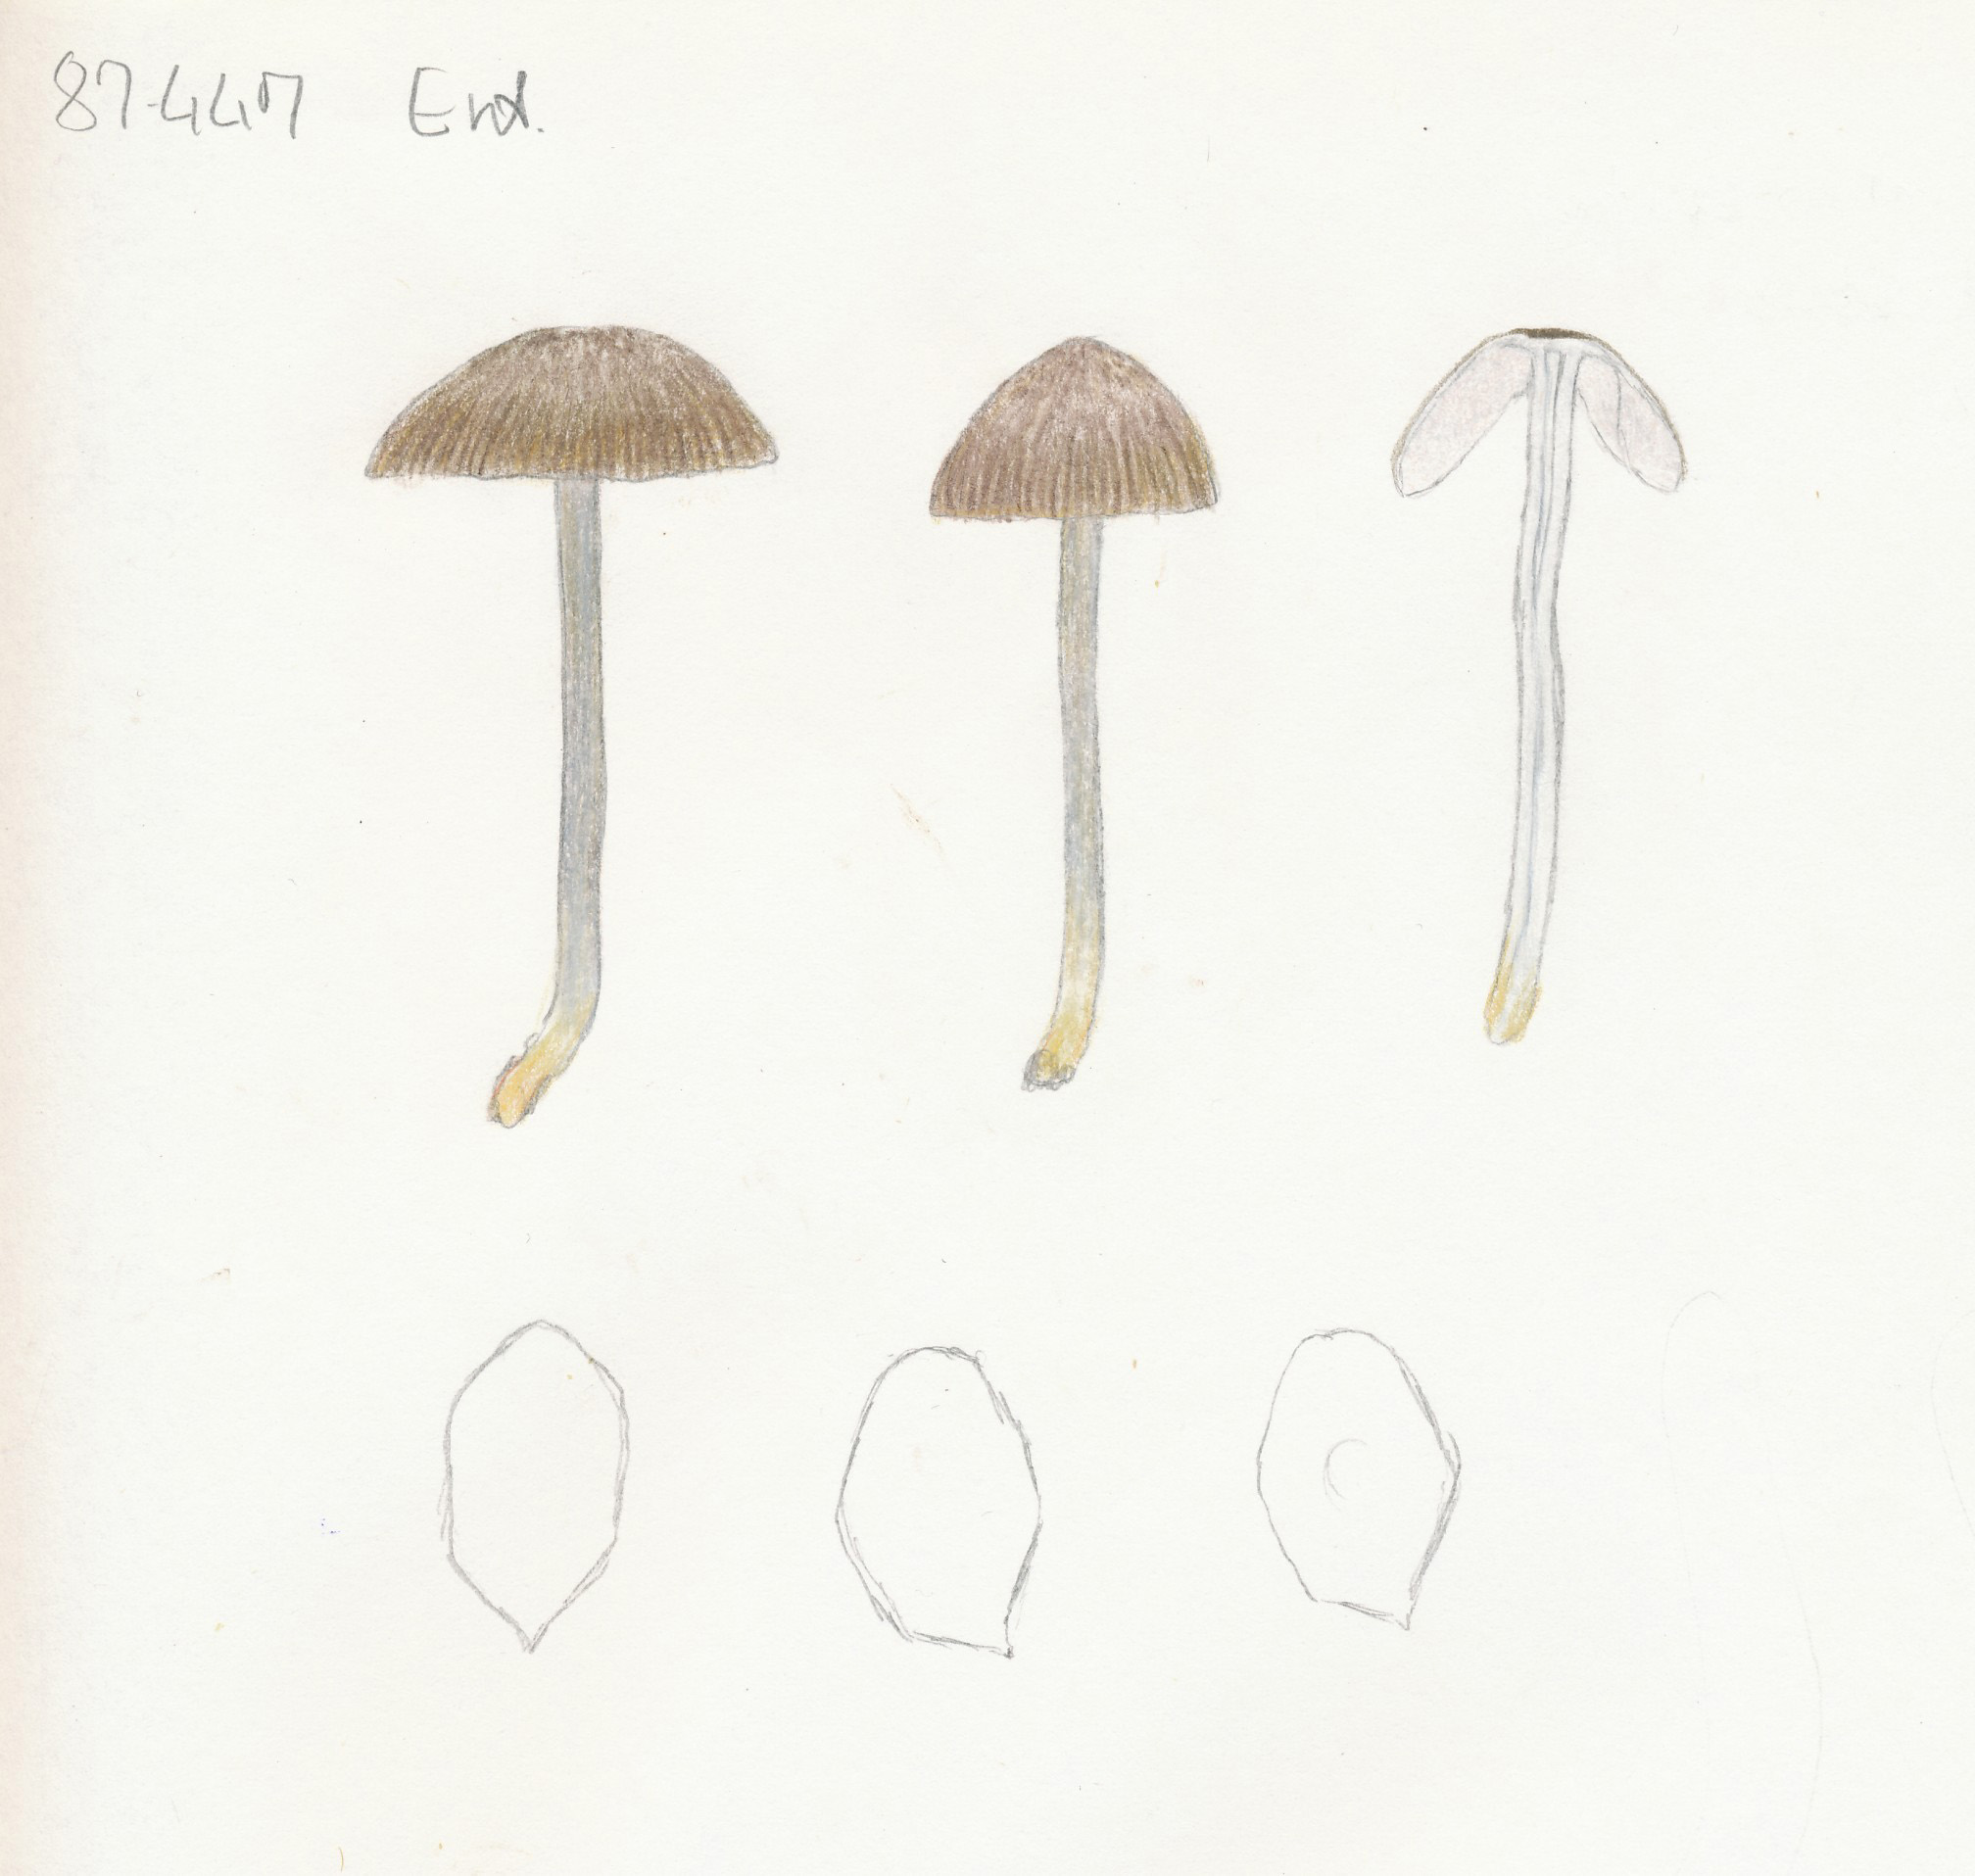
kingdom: Fungi
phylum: Basidiomycota
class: Agaricomycetes
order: Agaricales
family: Entolomataceae
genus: Entoloma
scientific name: Entoloma exile
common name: rødplettet rødblad
